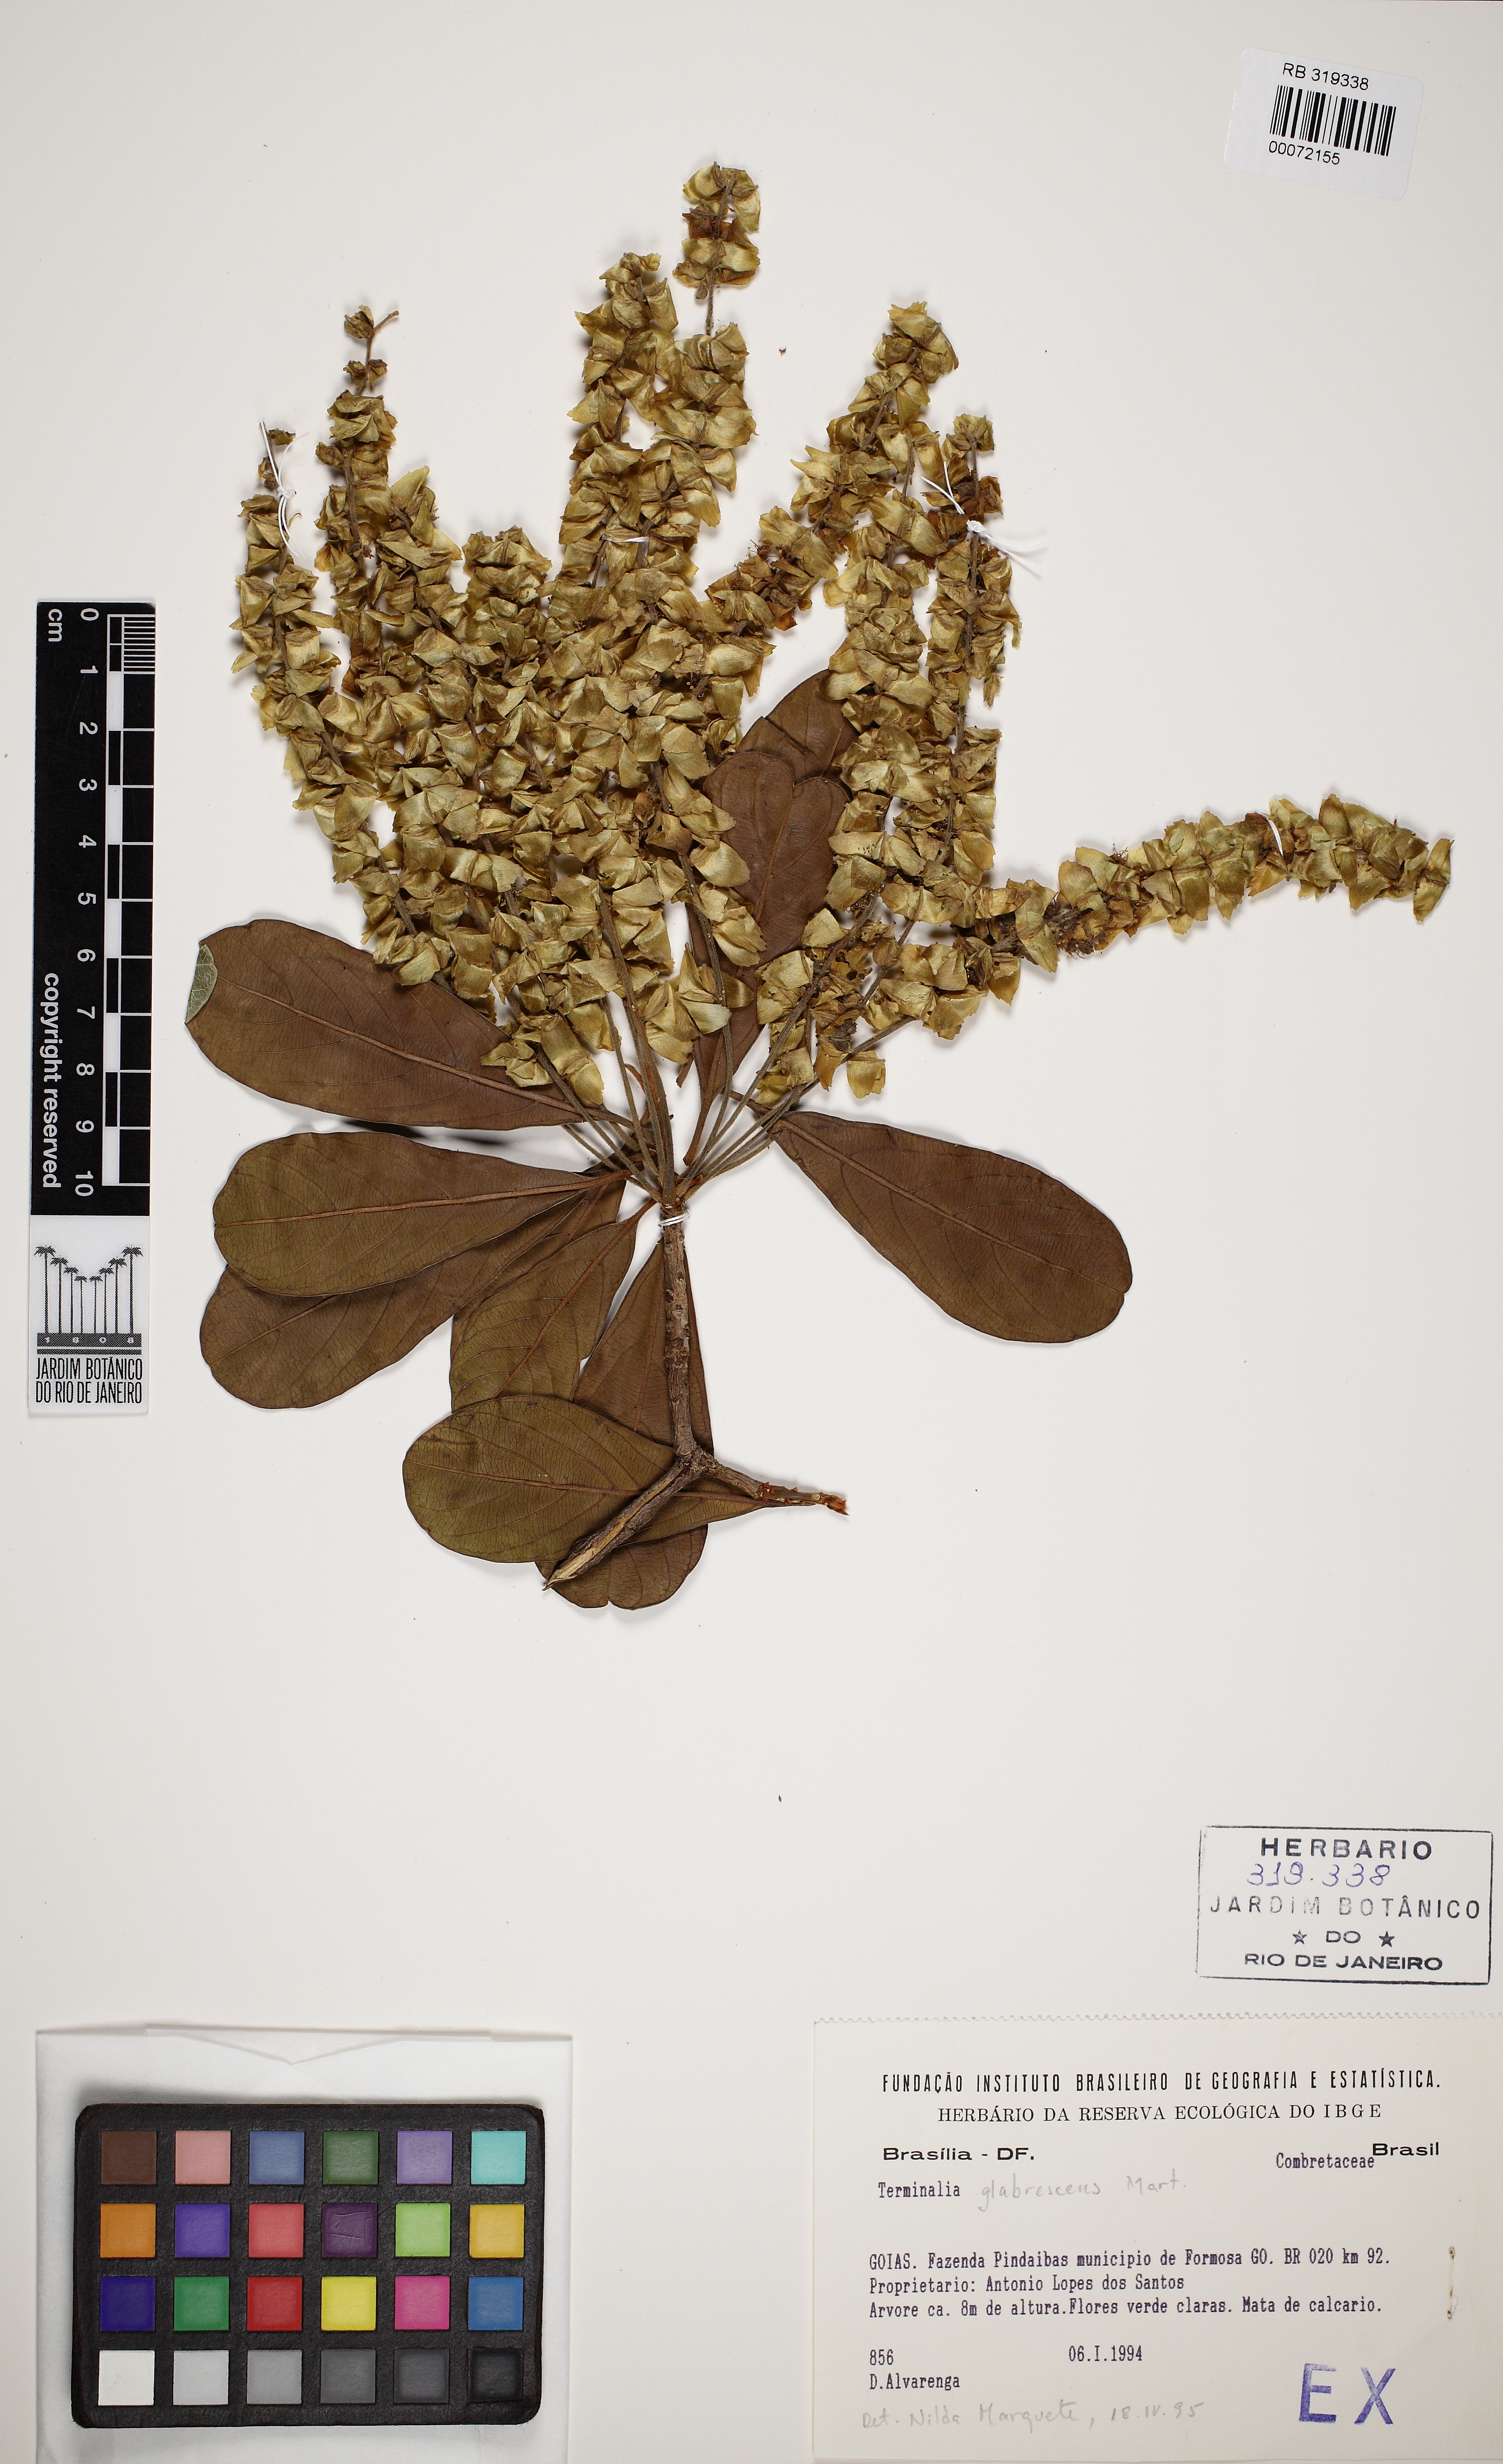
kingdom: Plantae
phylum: Tracheophyta
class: Magnoliopsida
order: Myrtales
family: Combretaceae
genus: Terminalia
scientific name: Terminalia glabrescens
